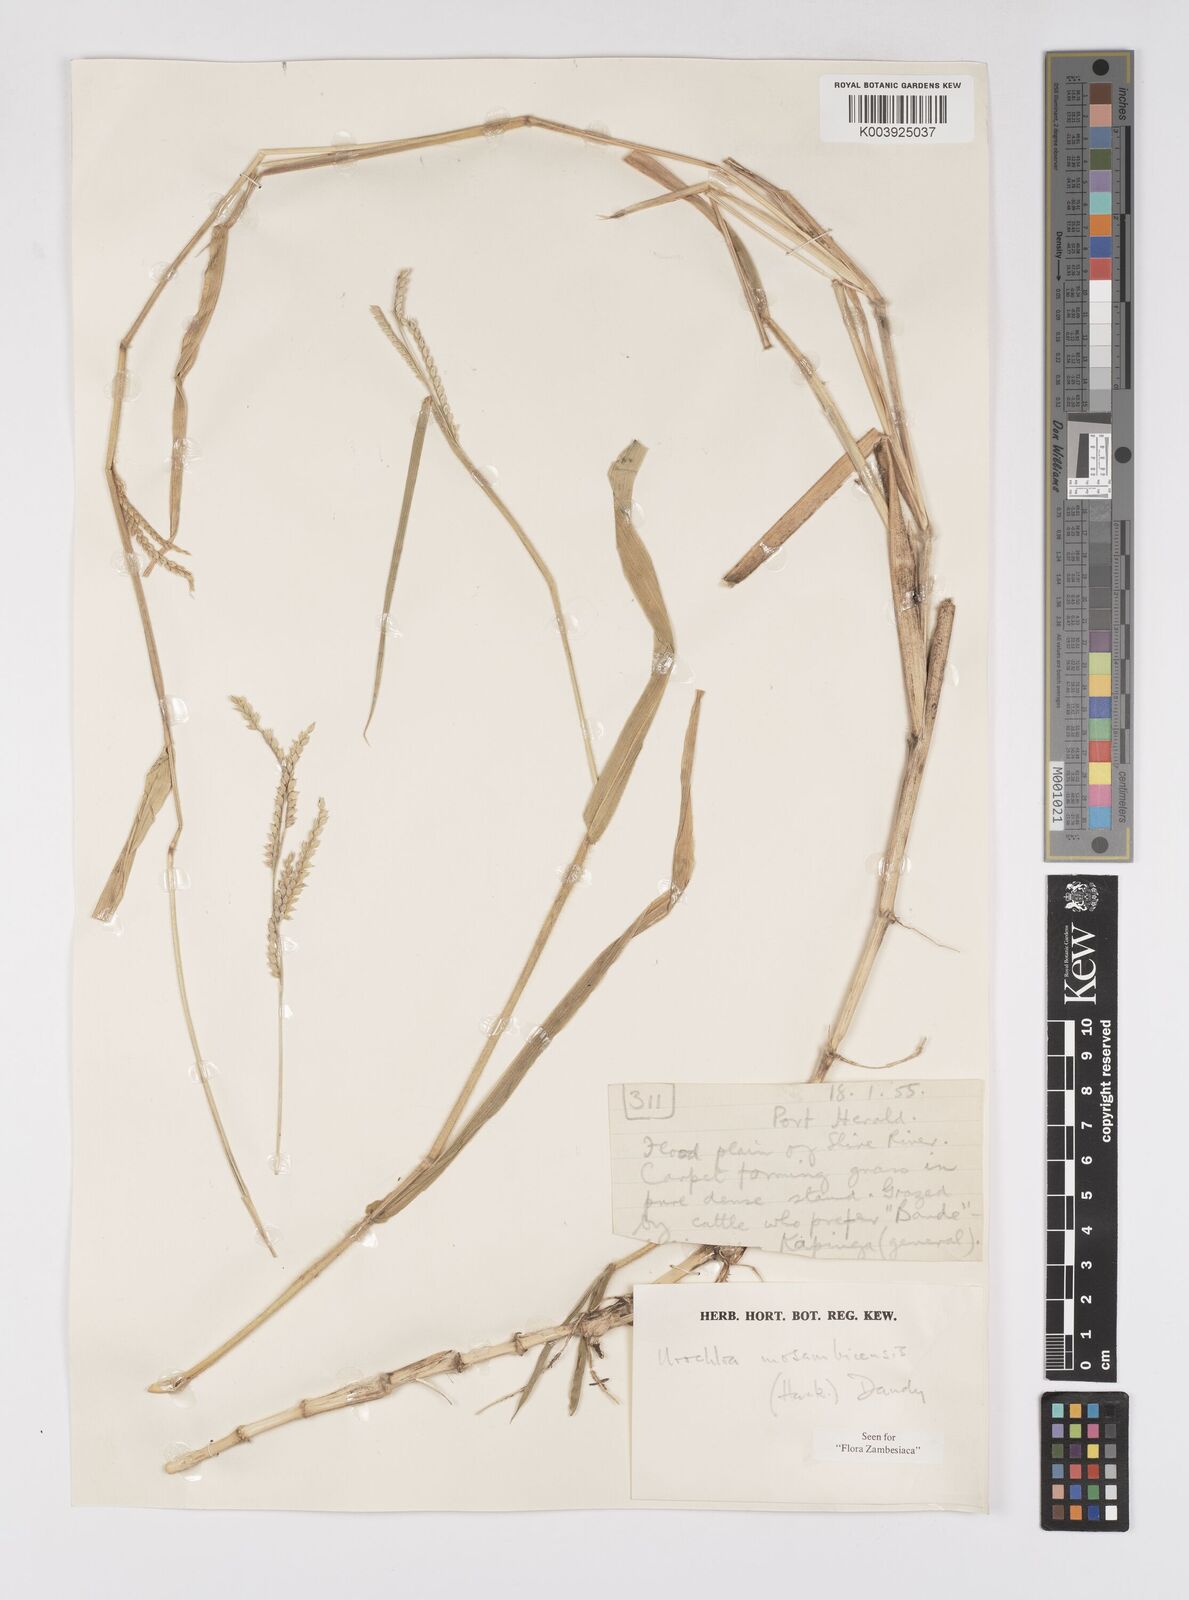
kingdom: Plantae
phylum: Tracheophyta
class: Liliopsida
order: Poales
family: Poaceae
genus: Urochloa
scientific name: Urochloa trichopus
